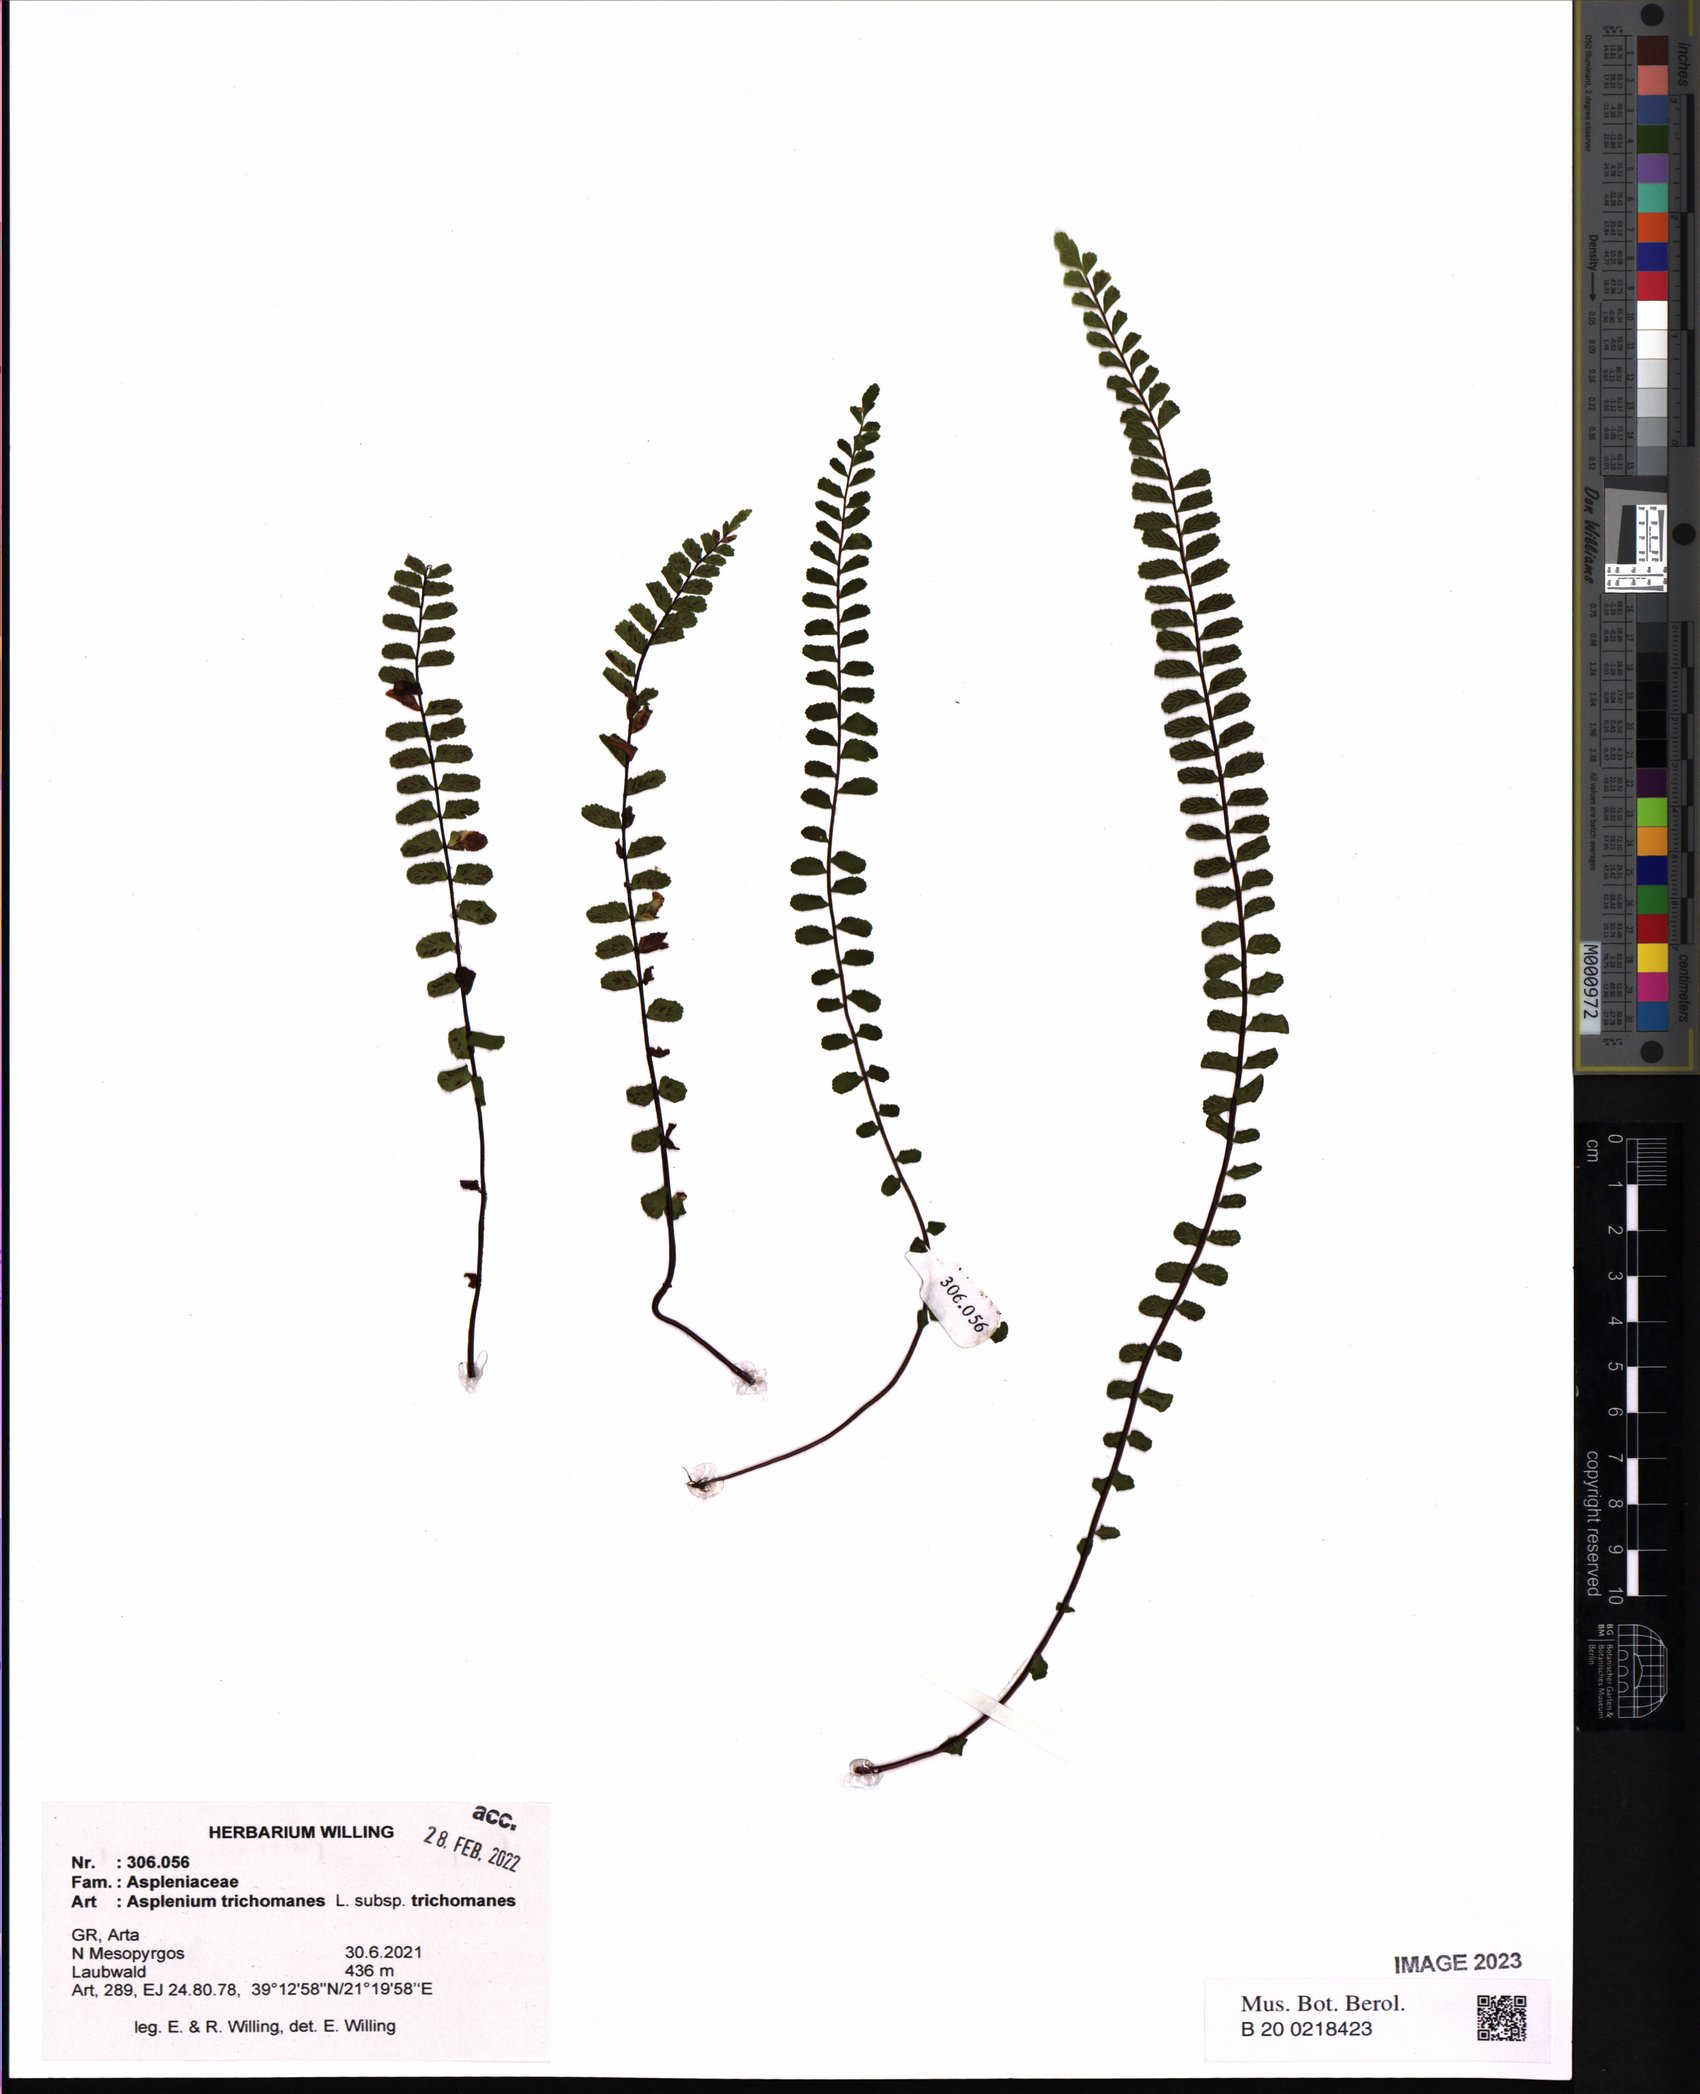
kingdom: Plantae
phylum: Tracheophyta
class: Polypodiopsida
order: Polypodiales
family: Aspleniaceae
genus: Asplenium
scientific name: Asplenium trichomanes
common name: Maidenhair spleenwort
